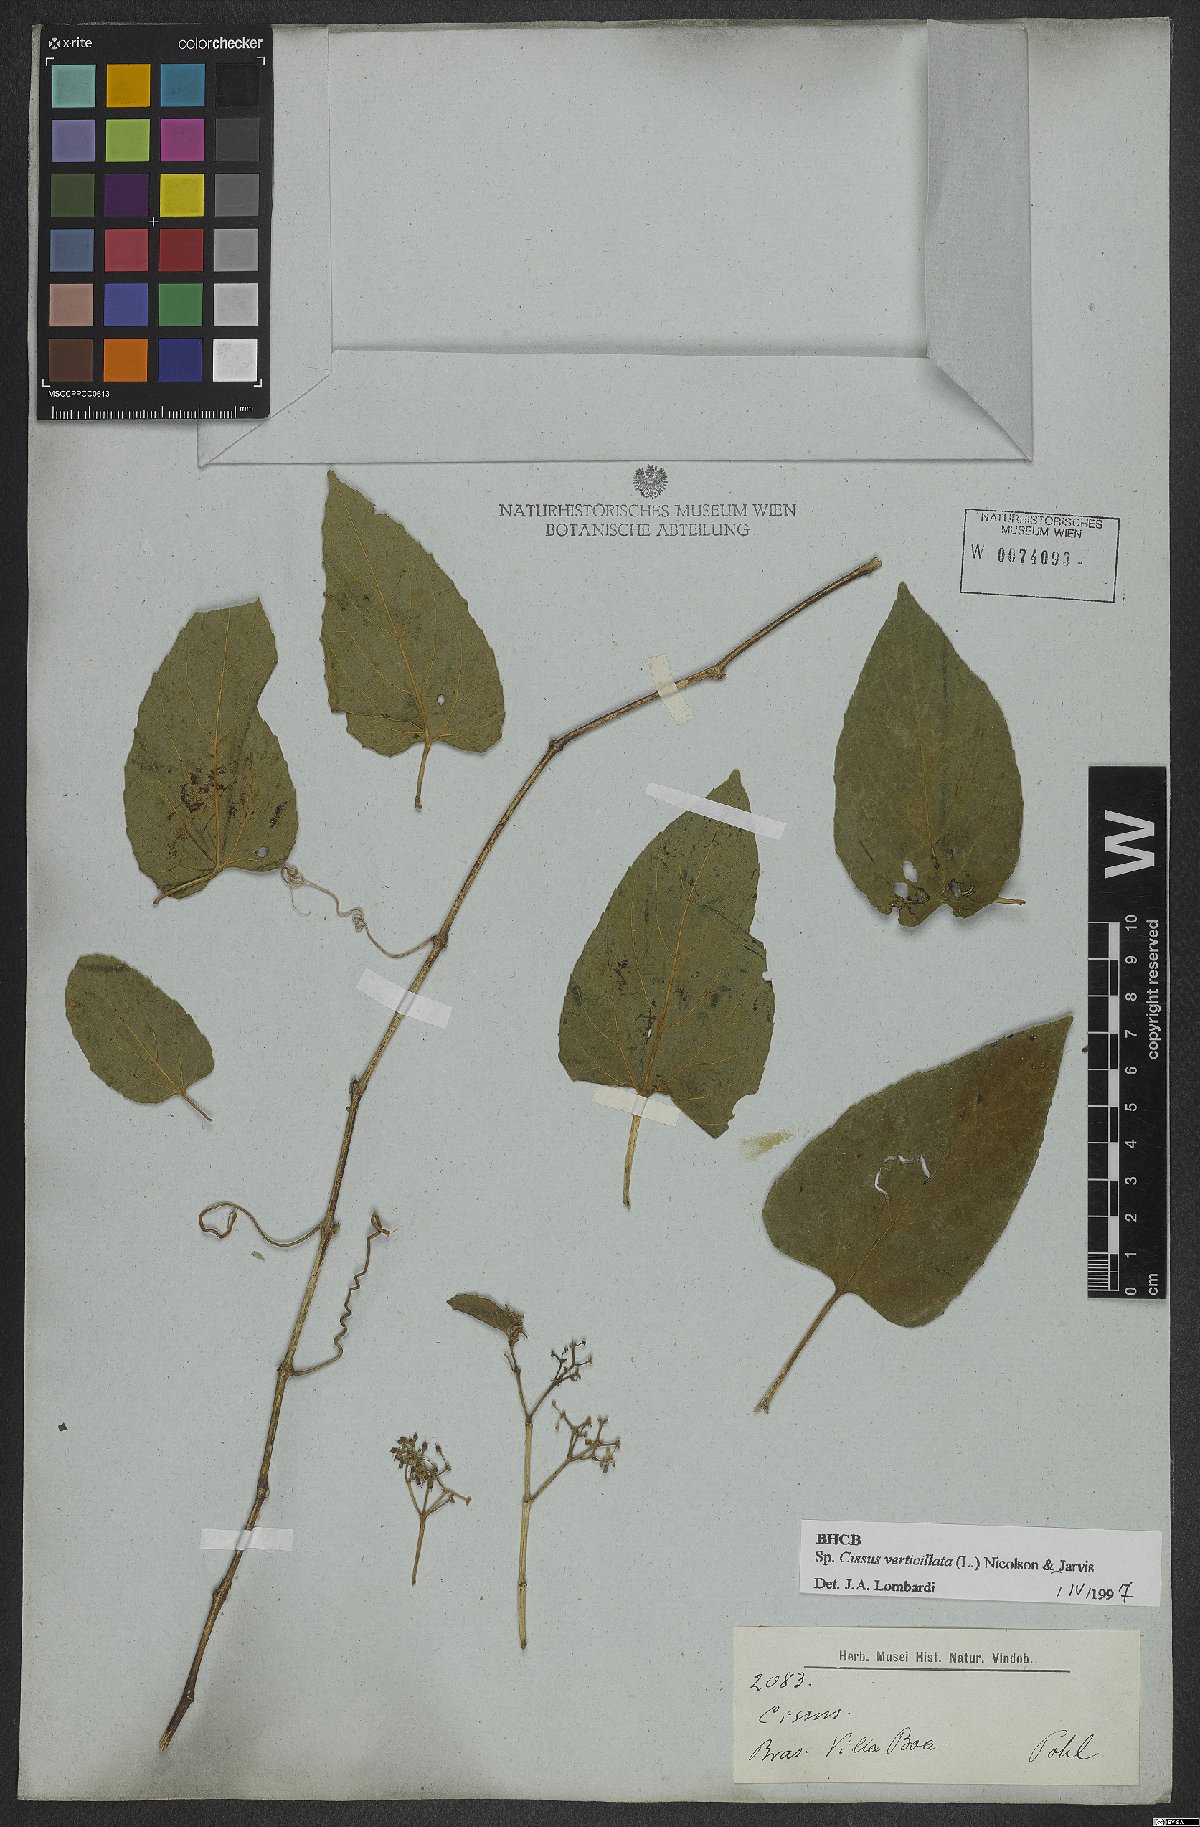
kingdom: Plantae
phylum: Tracheophyta
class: Magnoliopsida
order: Vitales
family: Vitaceae
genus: Cissus
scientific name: Cissus verticillata
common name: Princess vine
